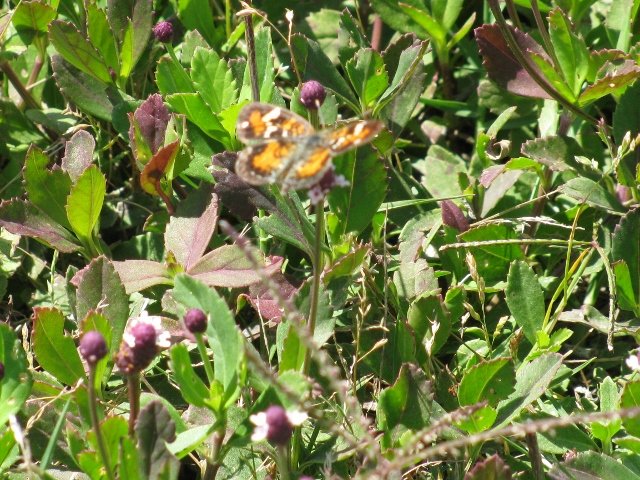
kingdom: Animalia
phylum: Arthropoda
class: Insecta
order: Lepidoptera
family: Nymphalidae
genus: Phyciodes
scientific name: Phyciodes phaon
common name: Phaon Crescent
